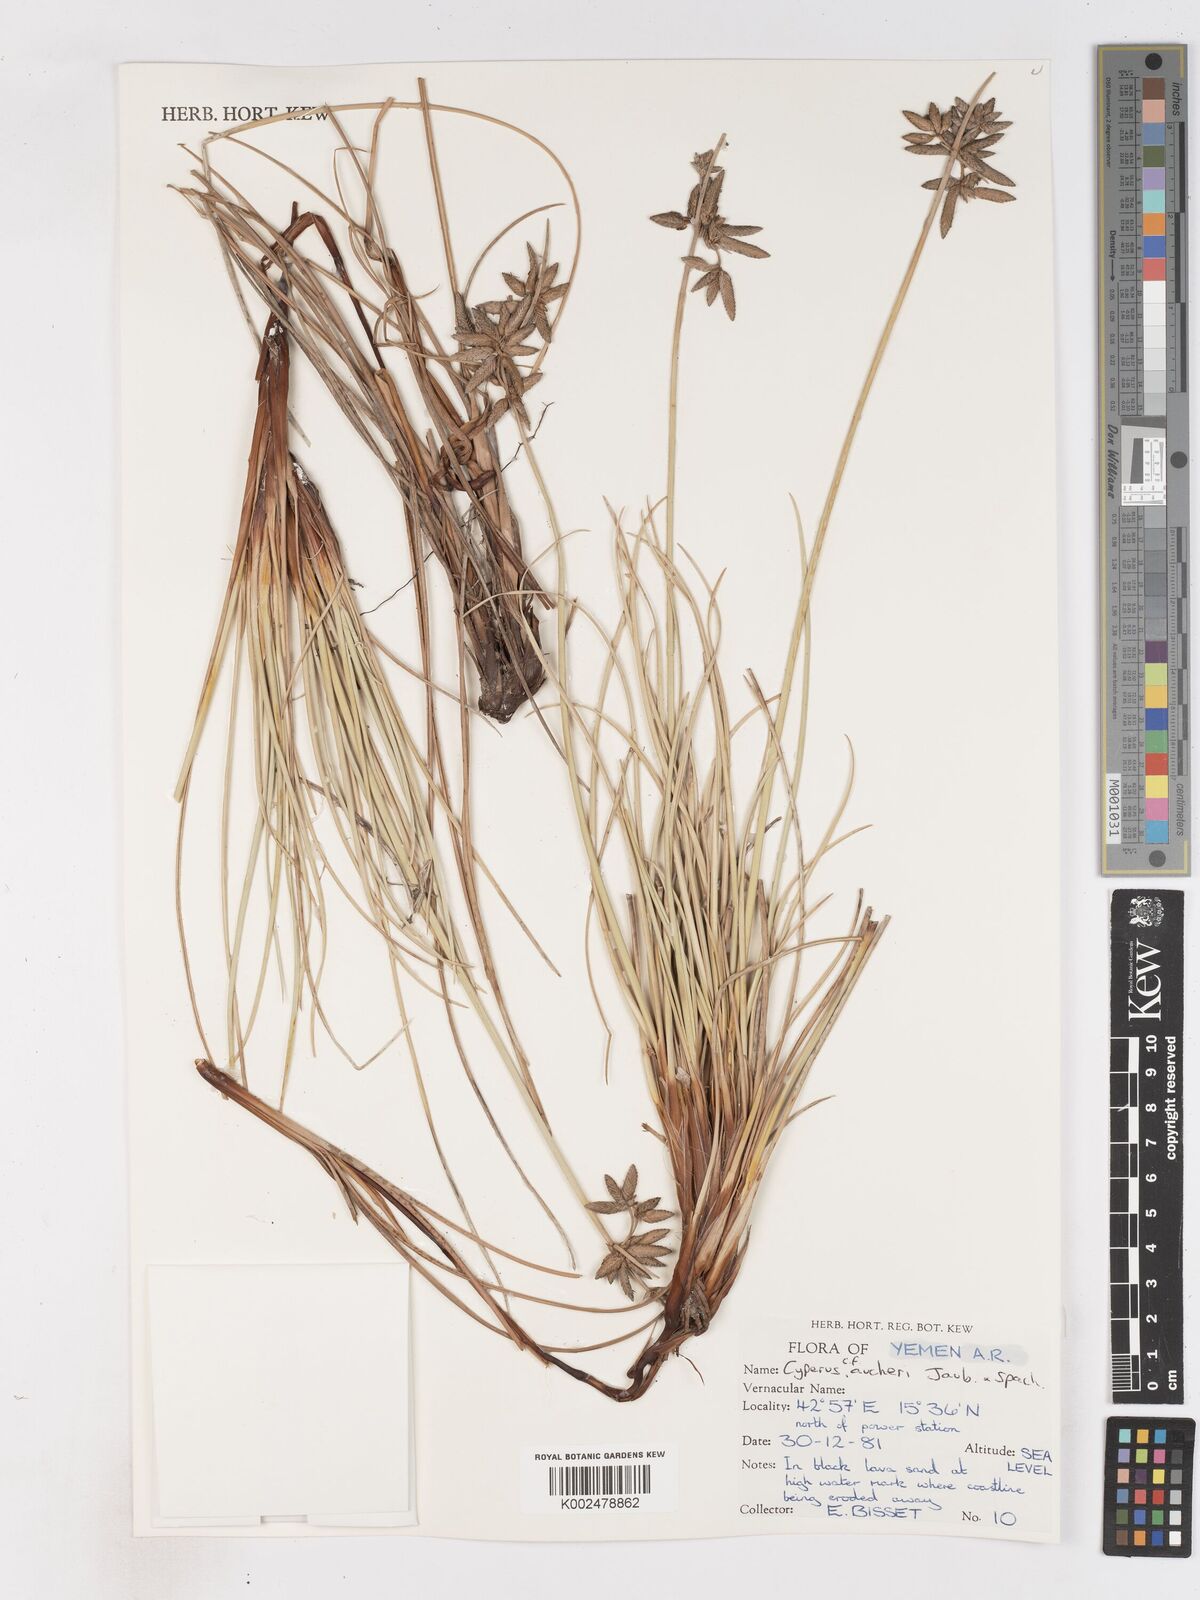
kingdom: Plantae
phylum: Tracheophyta
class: Liliopsida
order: Poales
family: Cyperaceae
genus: Cyperus
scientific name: Cyperus aucheri
